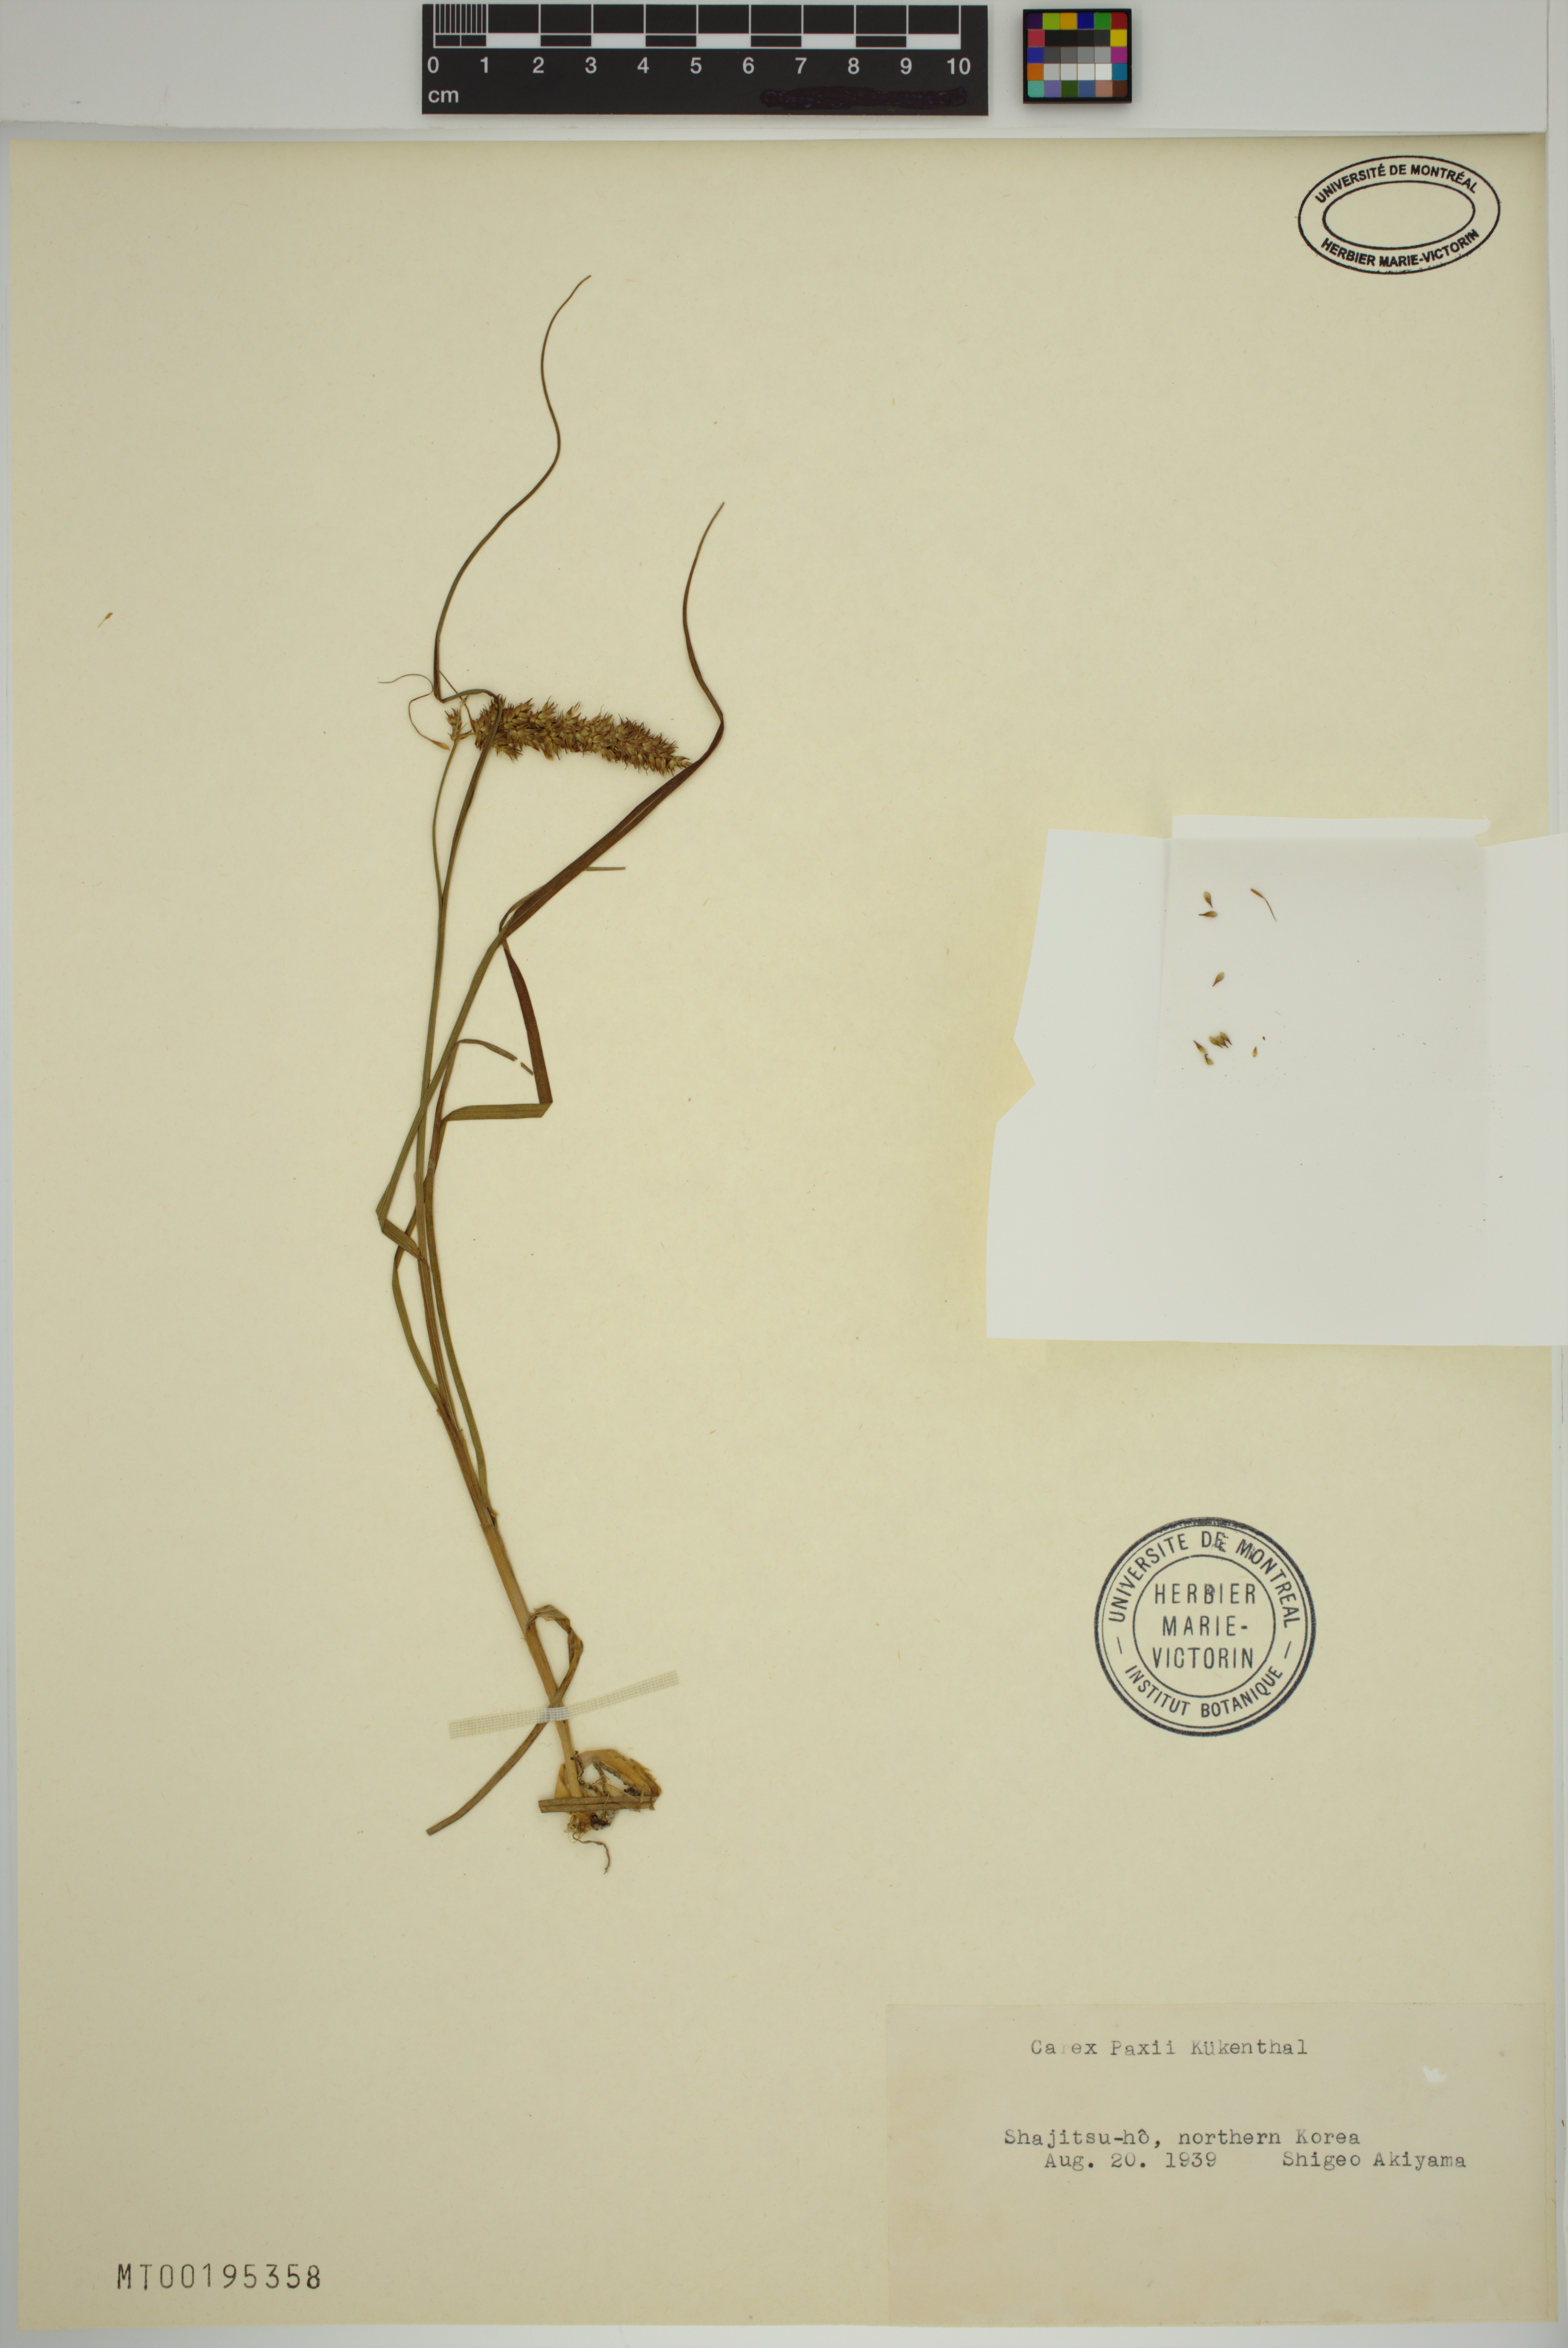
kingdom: Plantae
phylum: Tracheophyta
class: Liliopsida
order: Poales
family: Cyperaceae
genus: Carex
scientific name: Carex paxii
